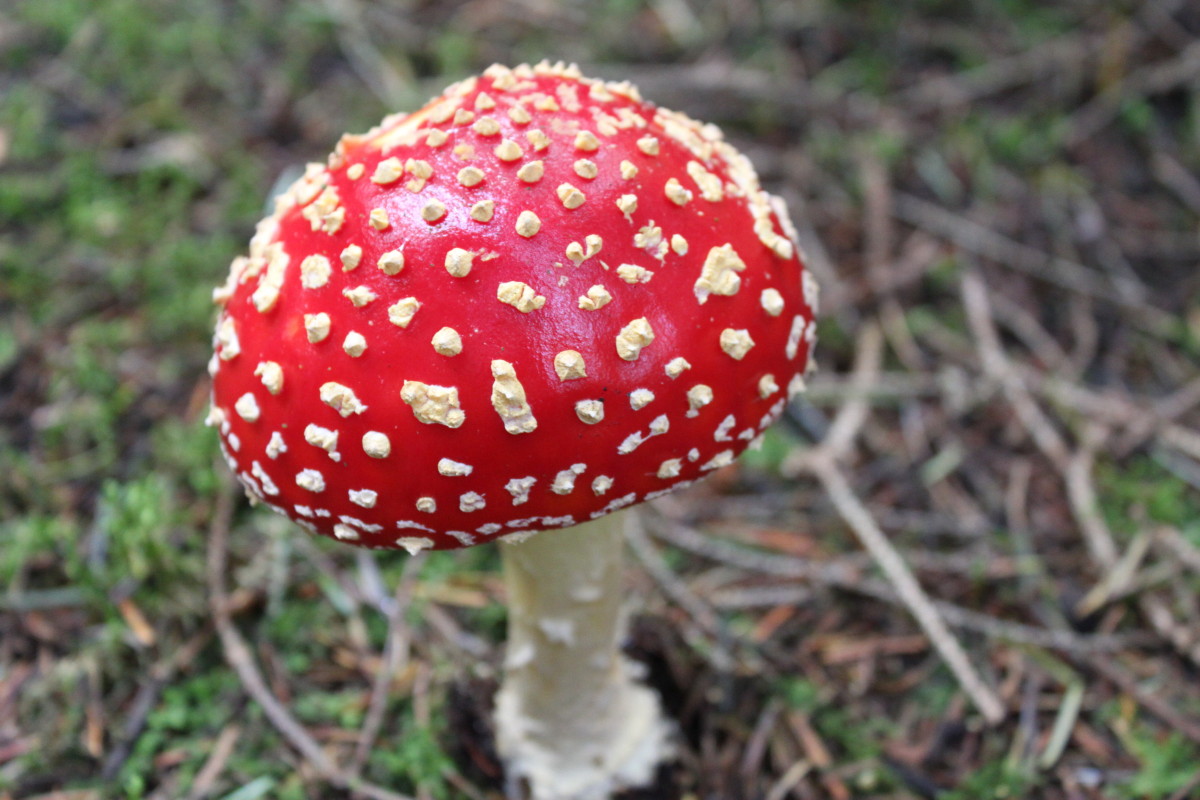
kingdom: Fungi
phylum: Basidiomycota
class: Agaricomycetes
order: Agaricales
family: Amanitaceae
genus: Amanita
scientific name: Amanita muscaria
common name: rød fluesvamp
